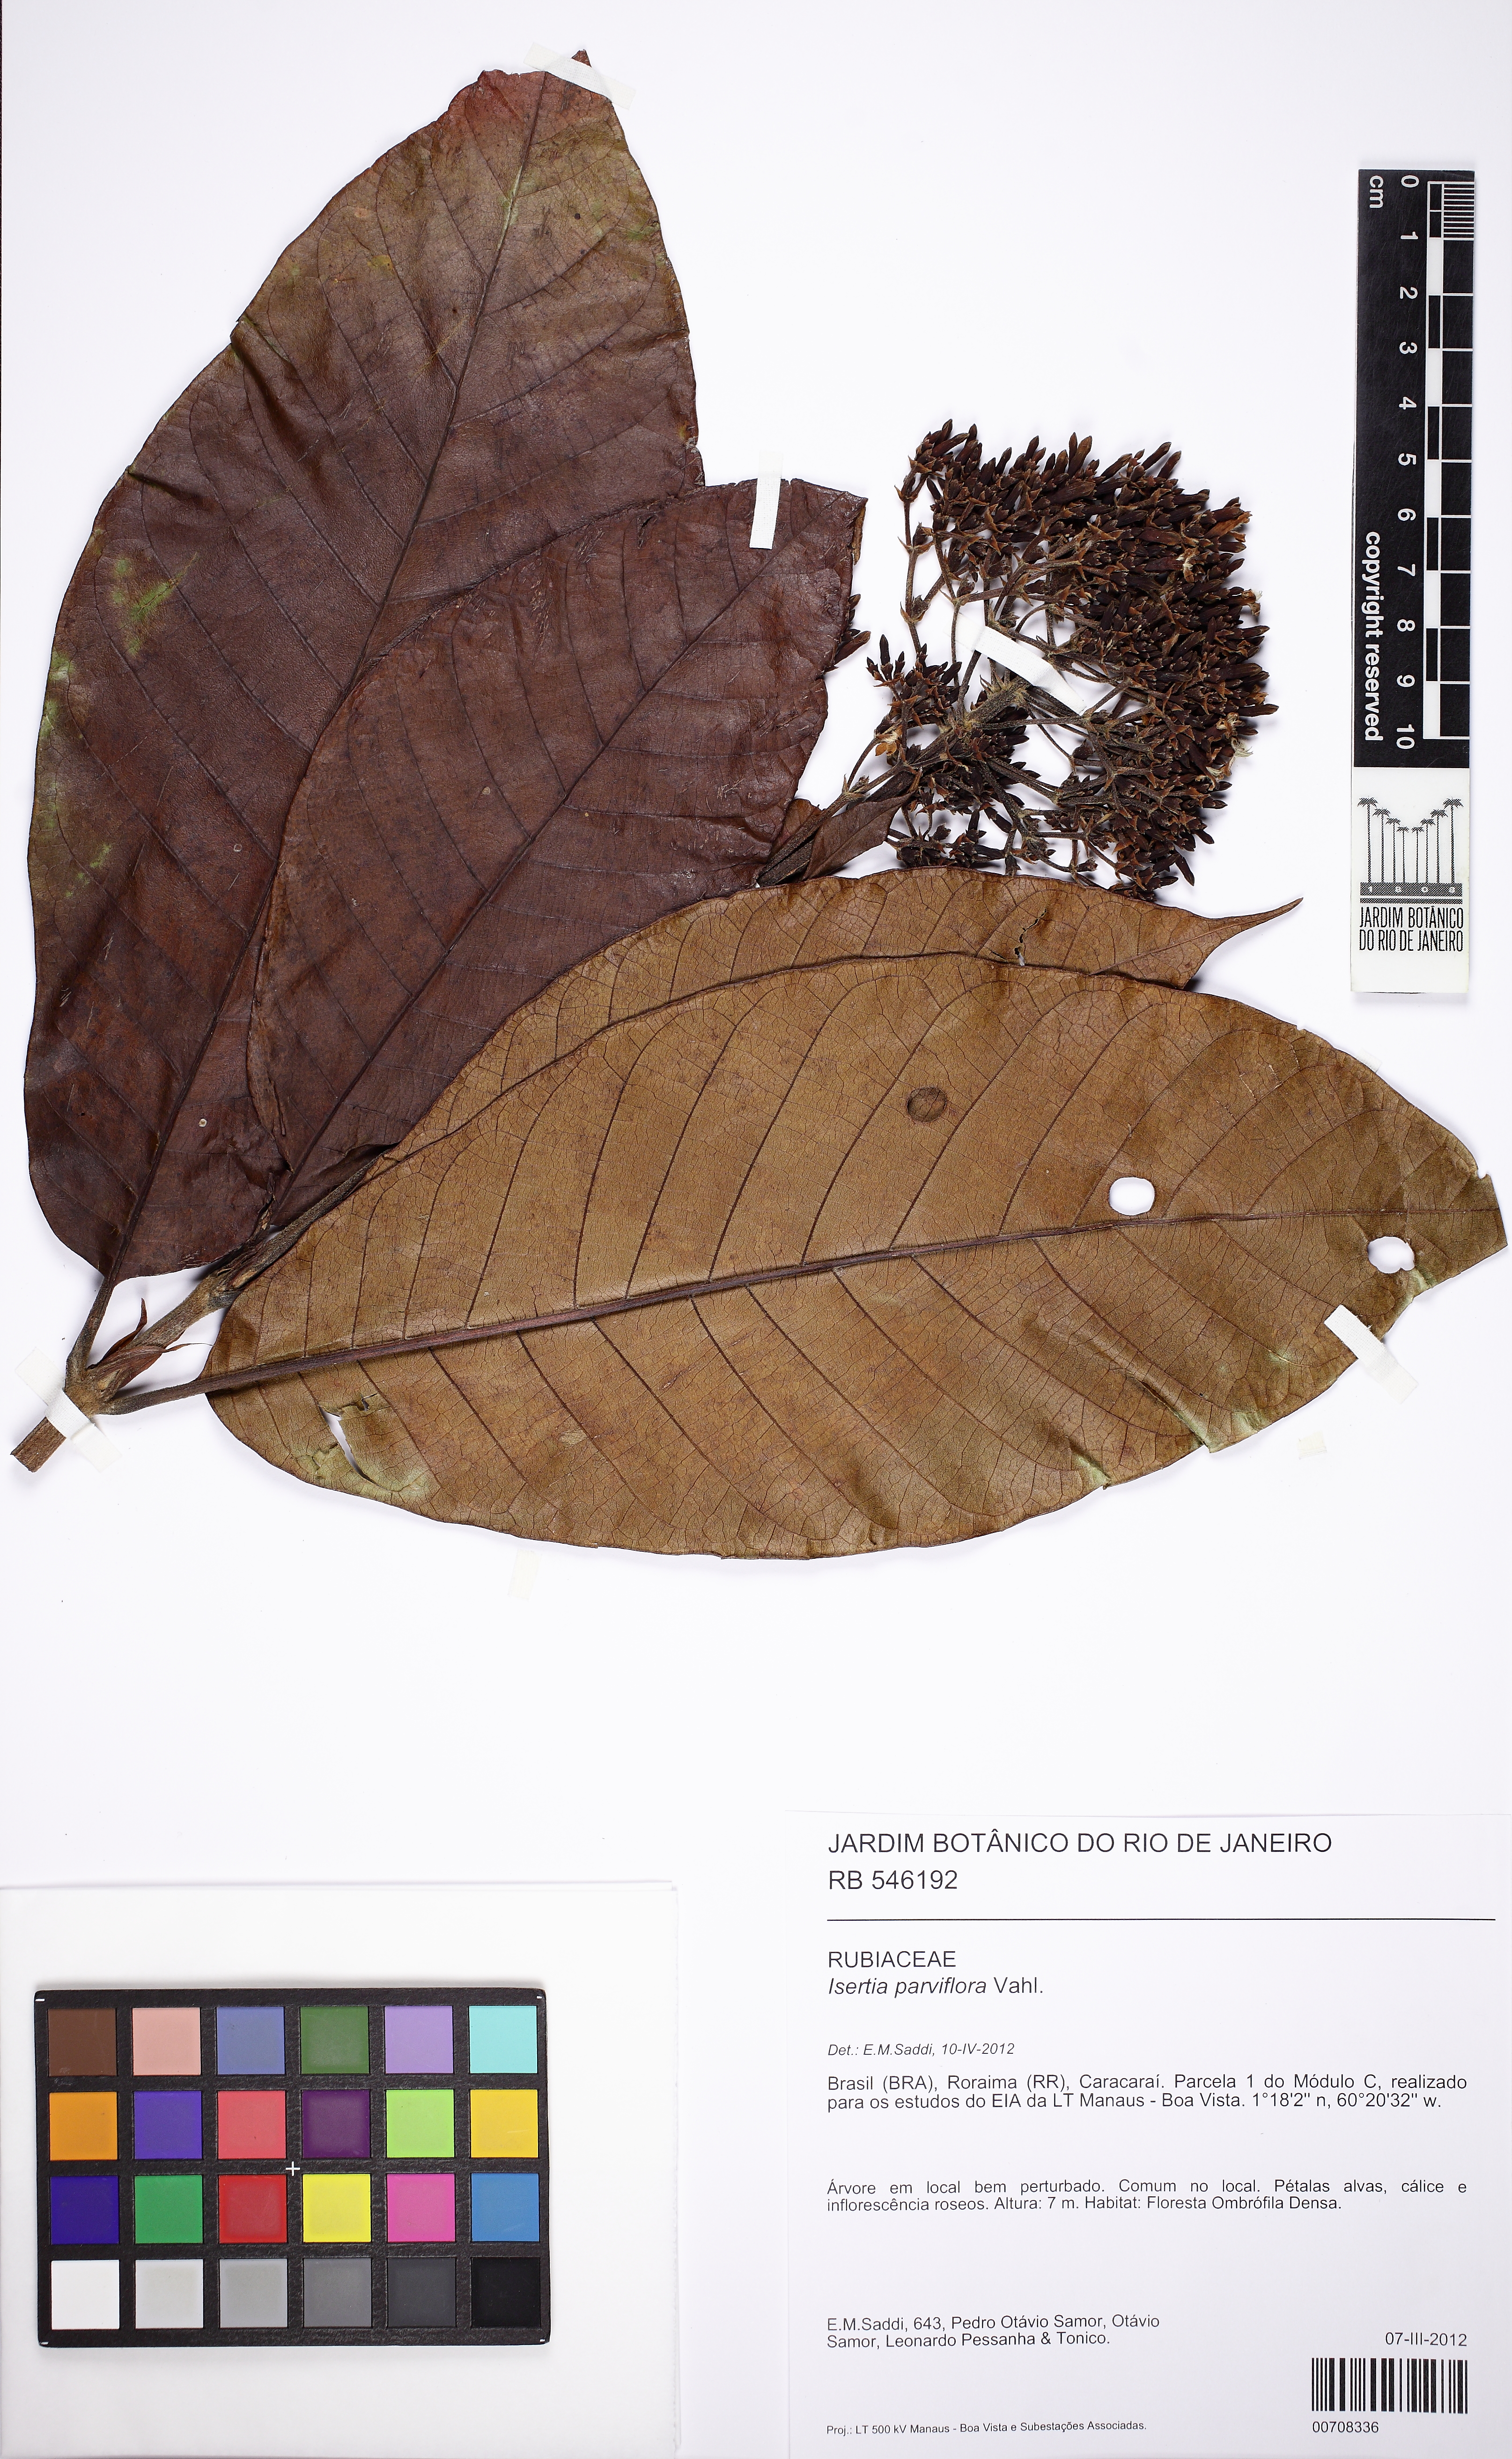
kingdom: Plantae
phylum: Tracheophyta
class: Magnoliopsida
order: Gentianales
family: Rubiaceae
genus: Isertia
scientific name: Isertia parviflora
